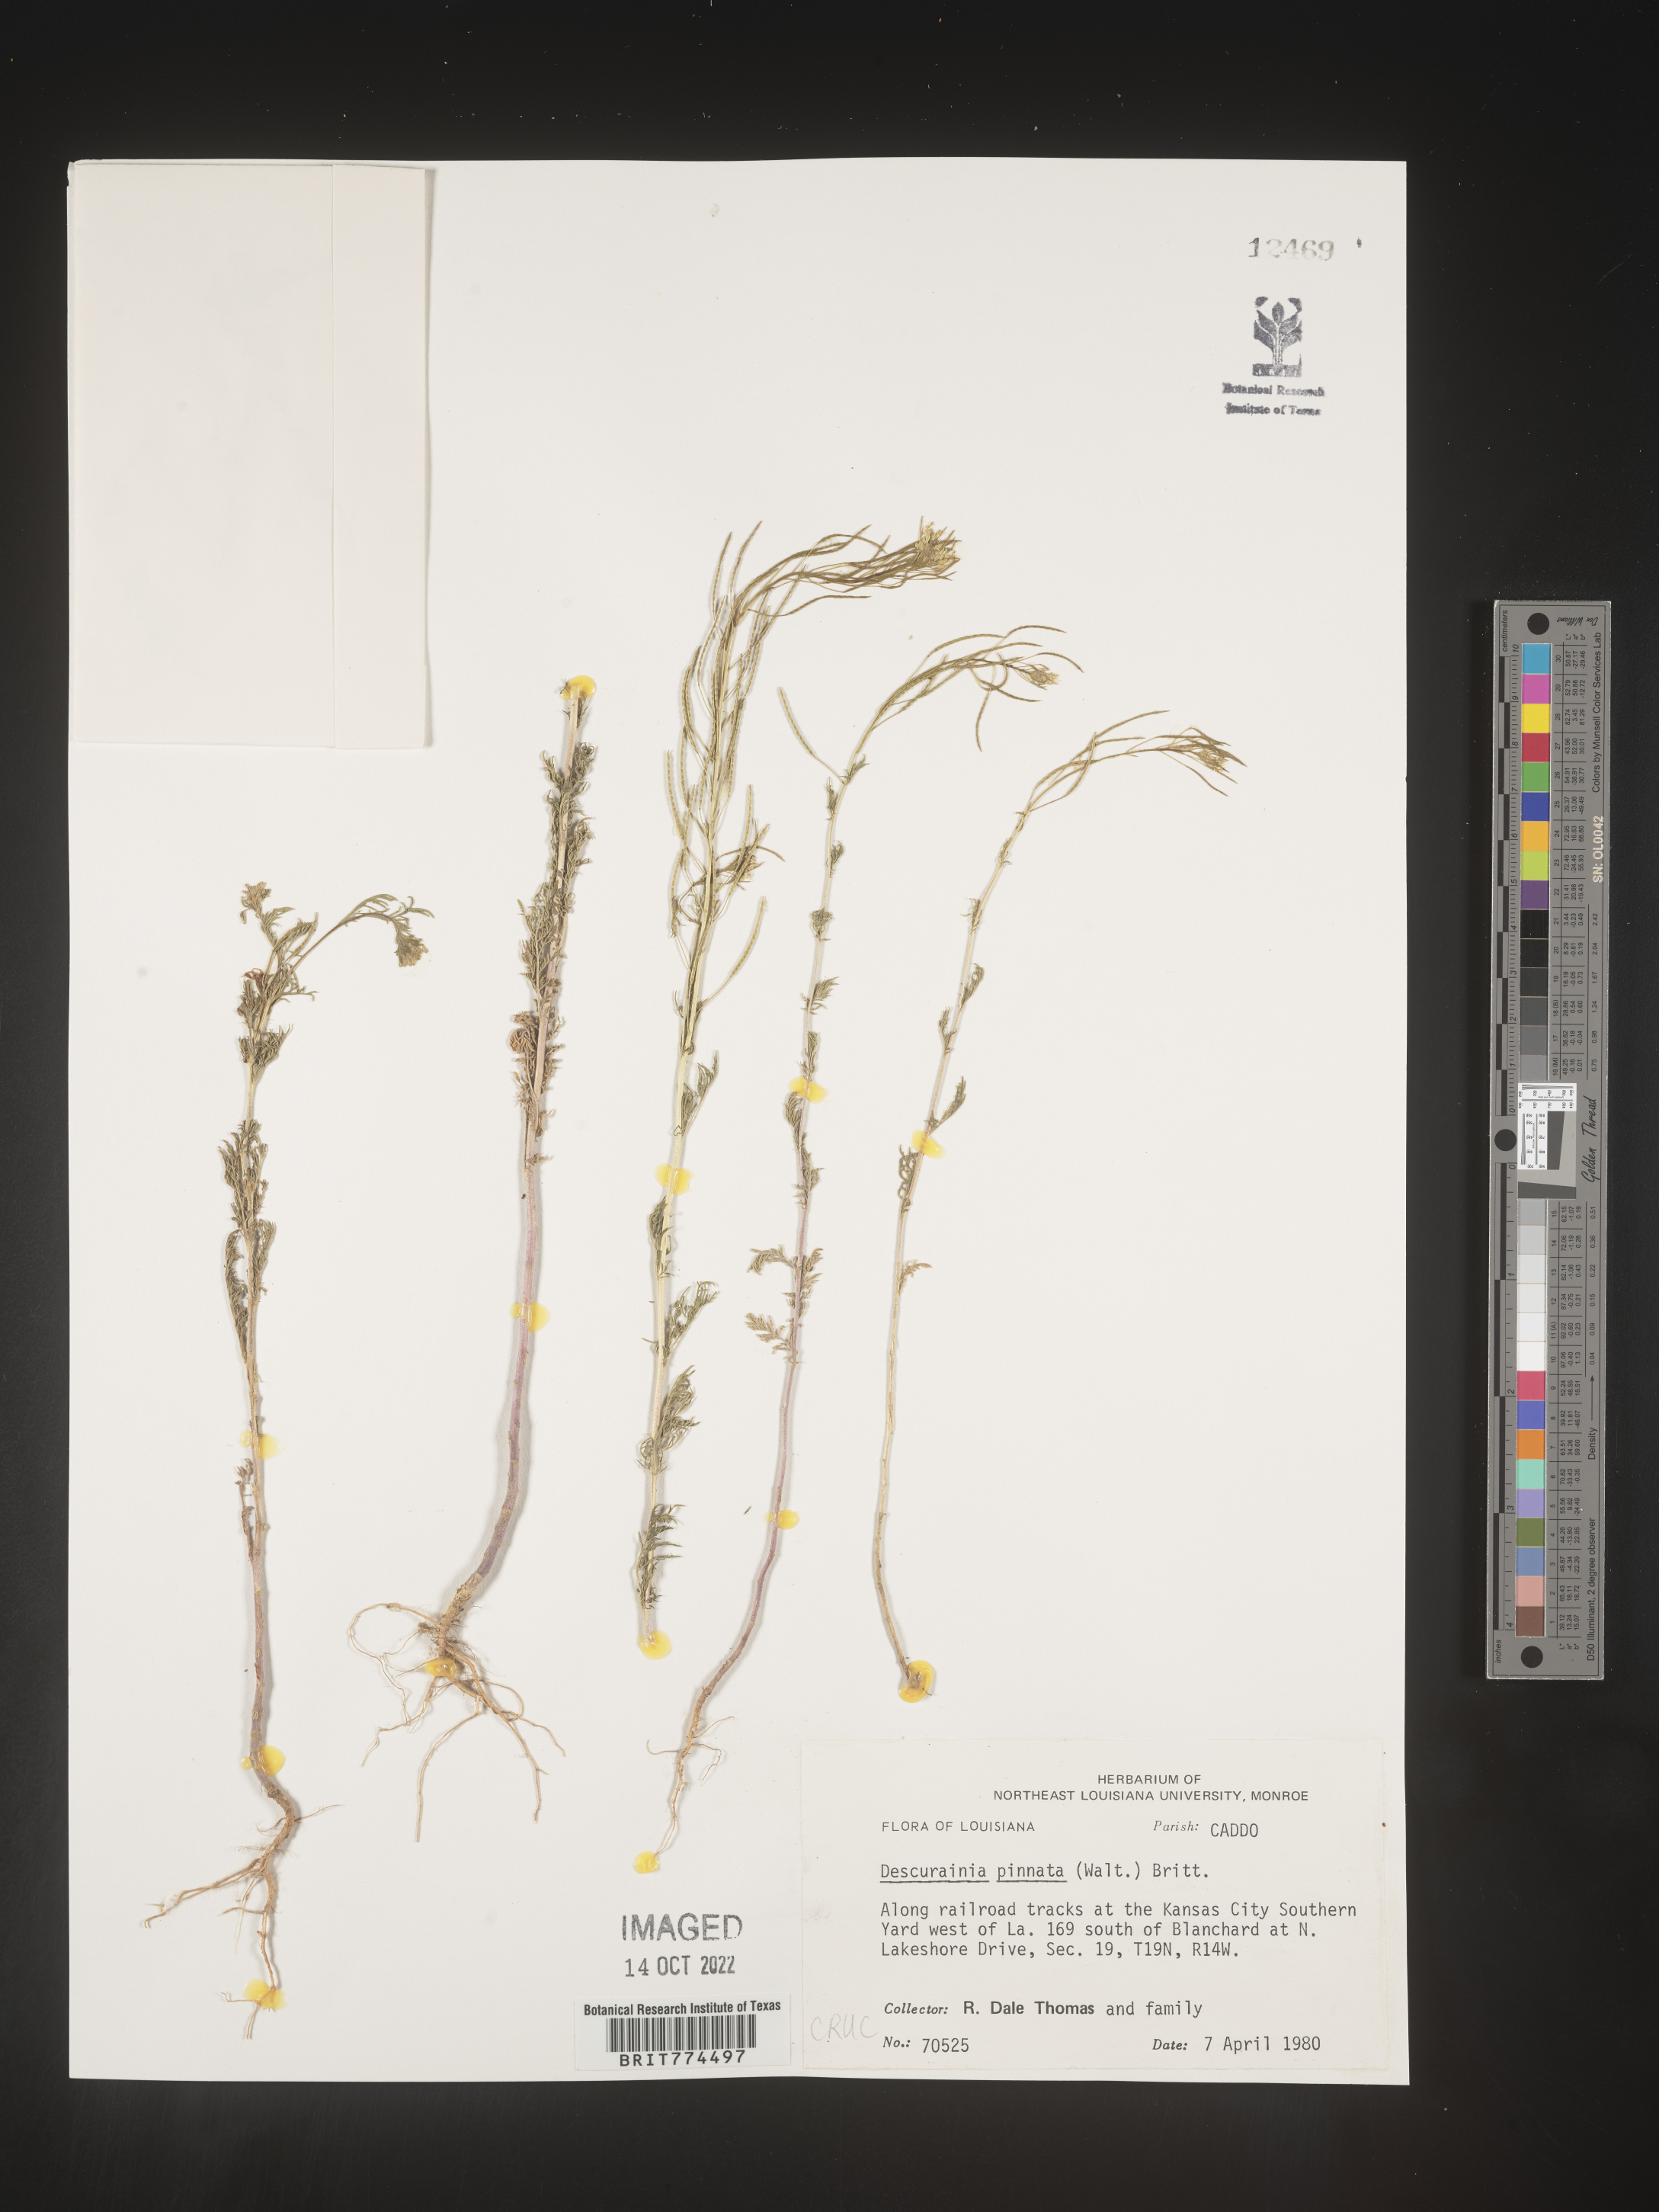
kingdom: Plantae
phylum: Tracheophyta
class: Magnoliopsida
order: Brassicales
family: Brassicaceae
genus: Descurainia
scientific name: Descurainia pinnata
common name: Western tansy mustard
